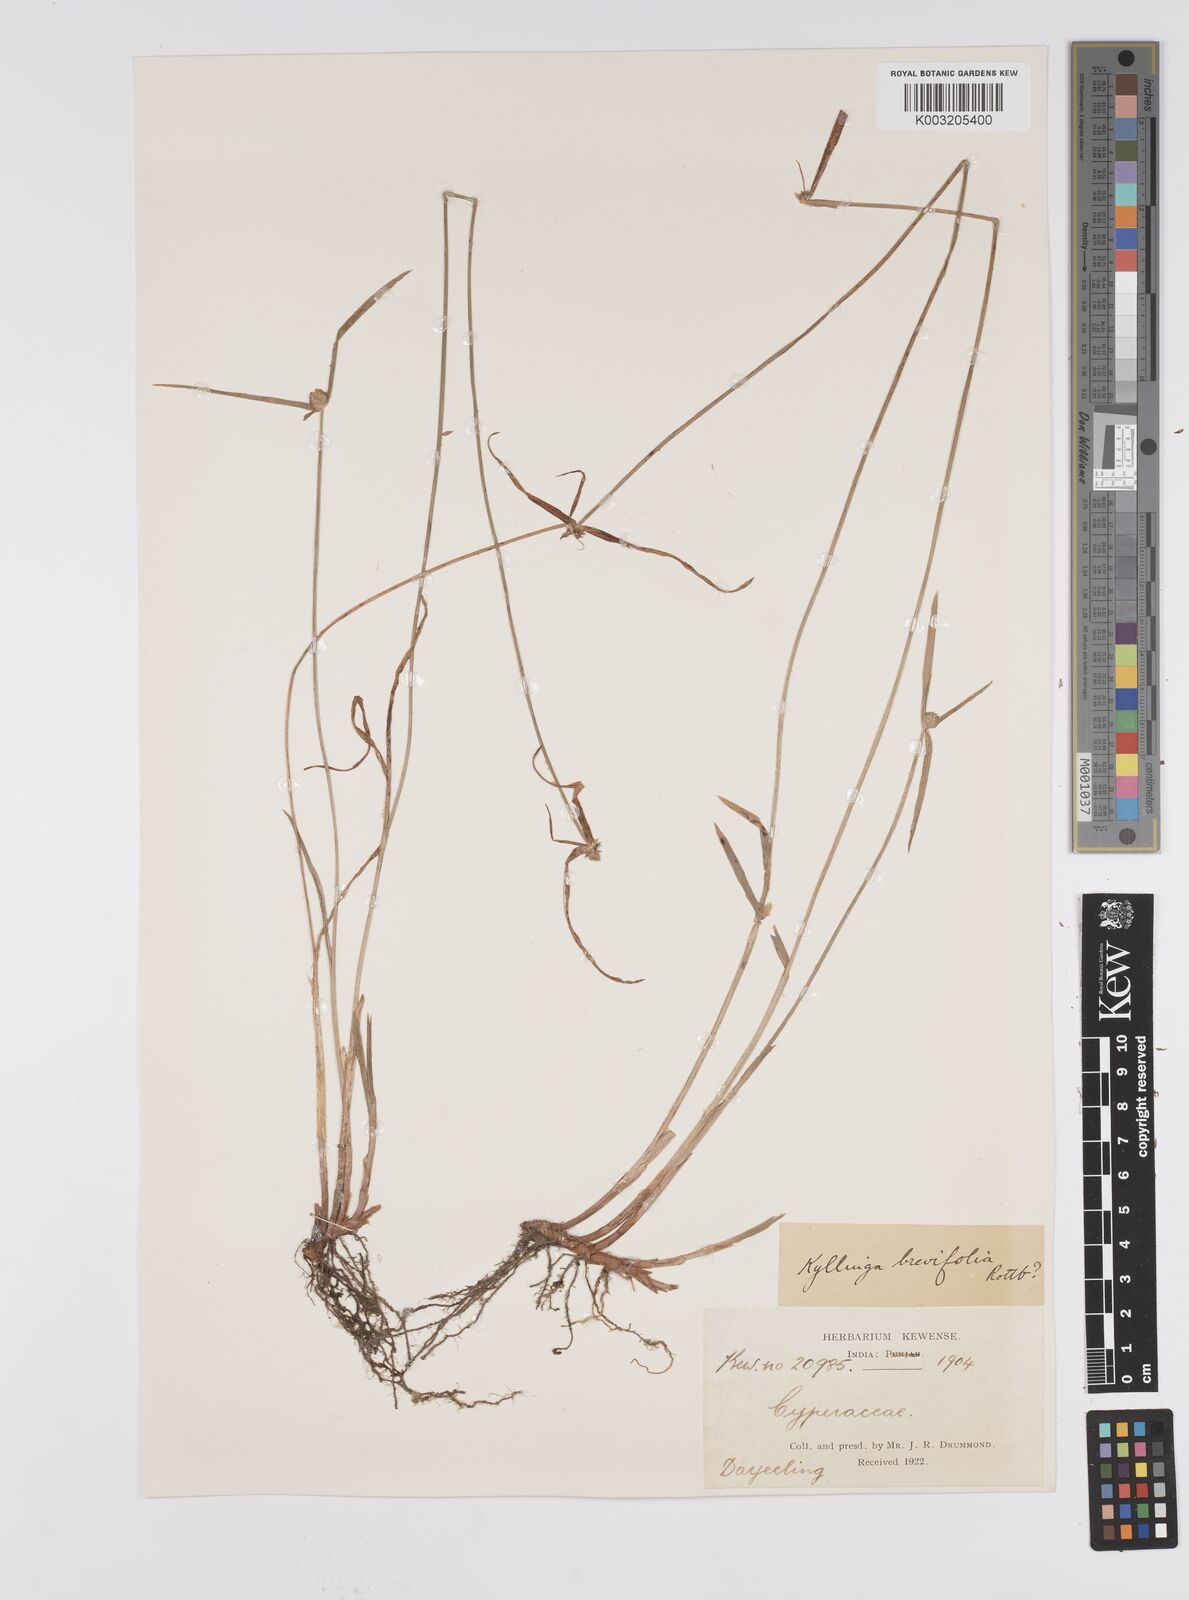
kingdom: Plantae
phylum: Tracheophyta
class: Liliopsida
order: Poales
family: Cyperaceae
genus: Cyperus
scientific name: Cyperus brevifolius
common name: Globe kyllinga
